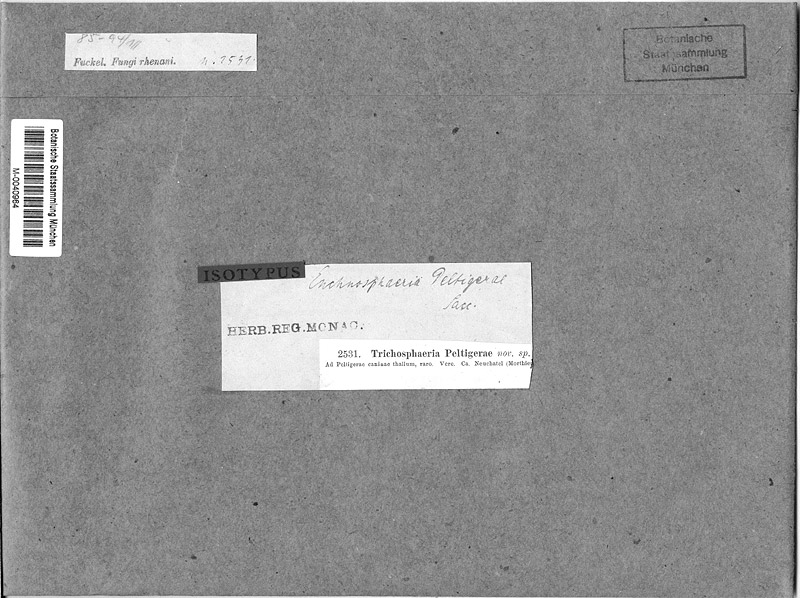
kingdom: Fungi
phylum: Ascomycota
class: Lecanoromycetes
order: Peltigerales
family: Peltigeraceae
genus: Peltigera
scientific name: Peltigera canina
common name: Dog pelt lichen
